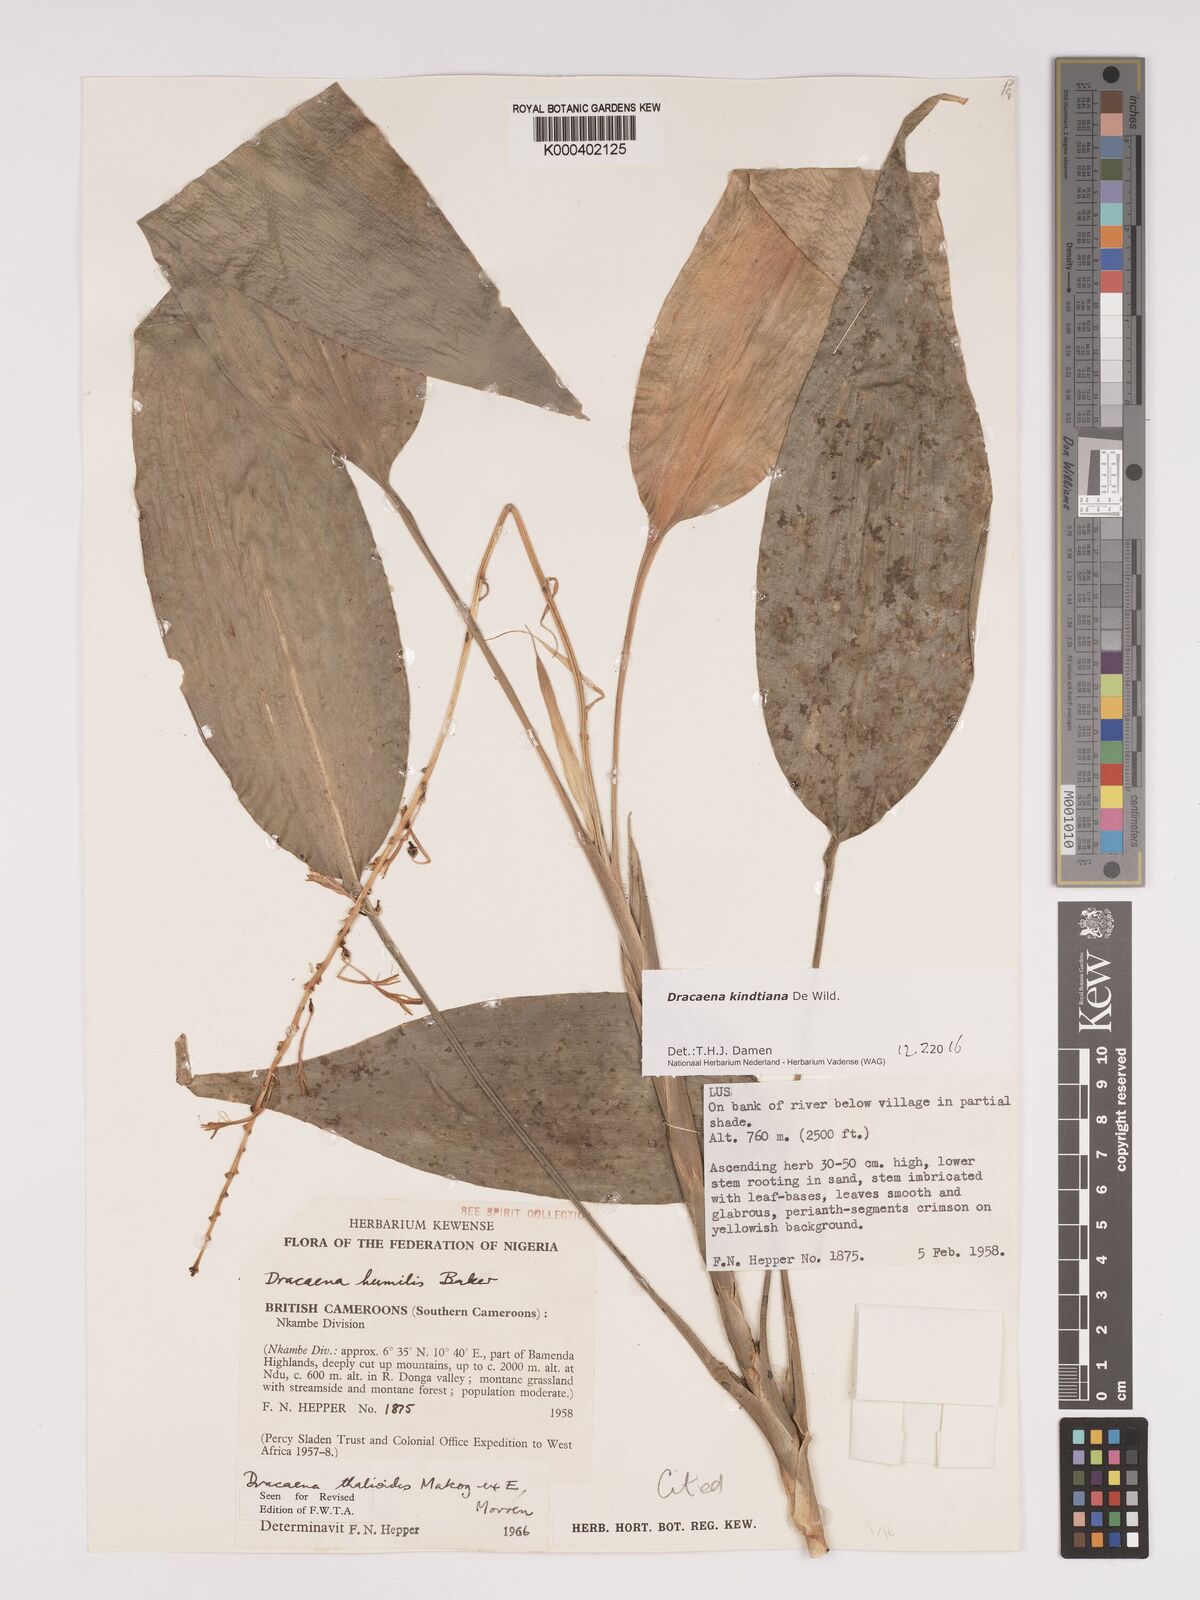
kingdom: Plantae
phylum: Tracheophyta
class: Liliopsida
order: Asparagales
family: Asparagaceae
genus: Dracaena
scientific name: Dracaena kindtiana
